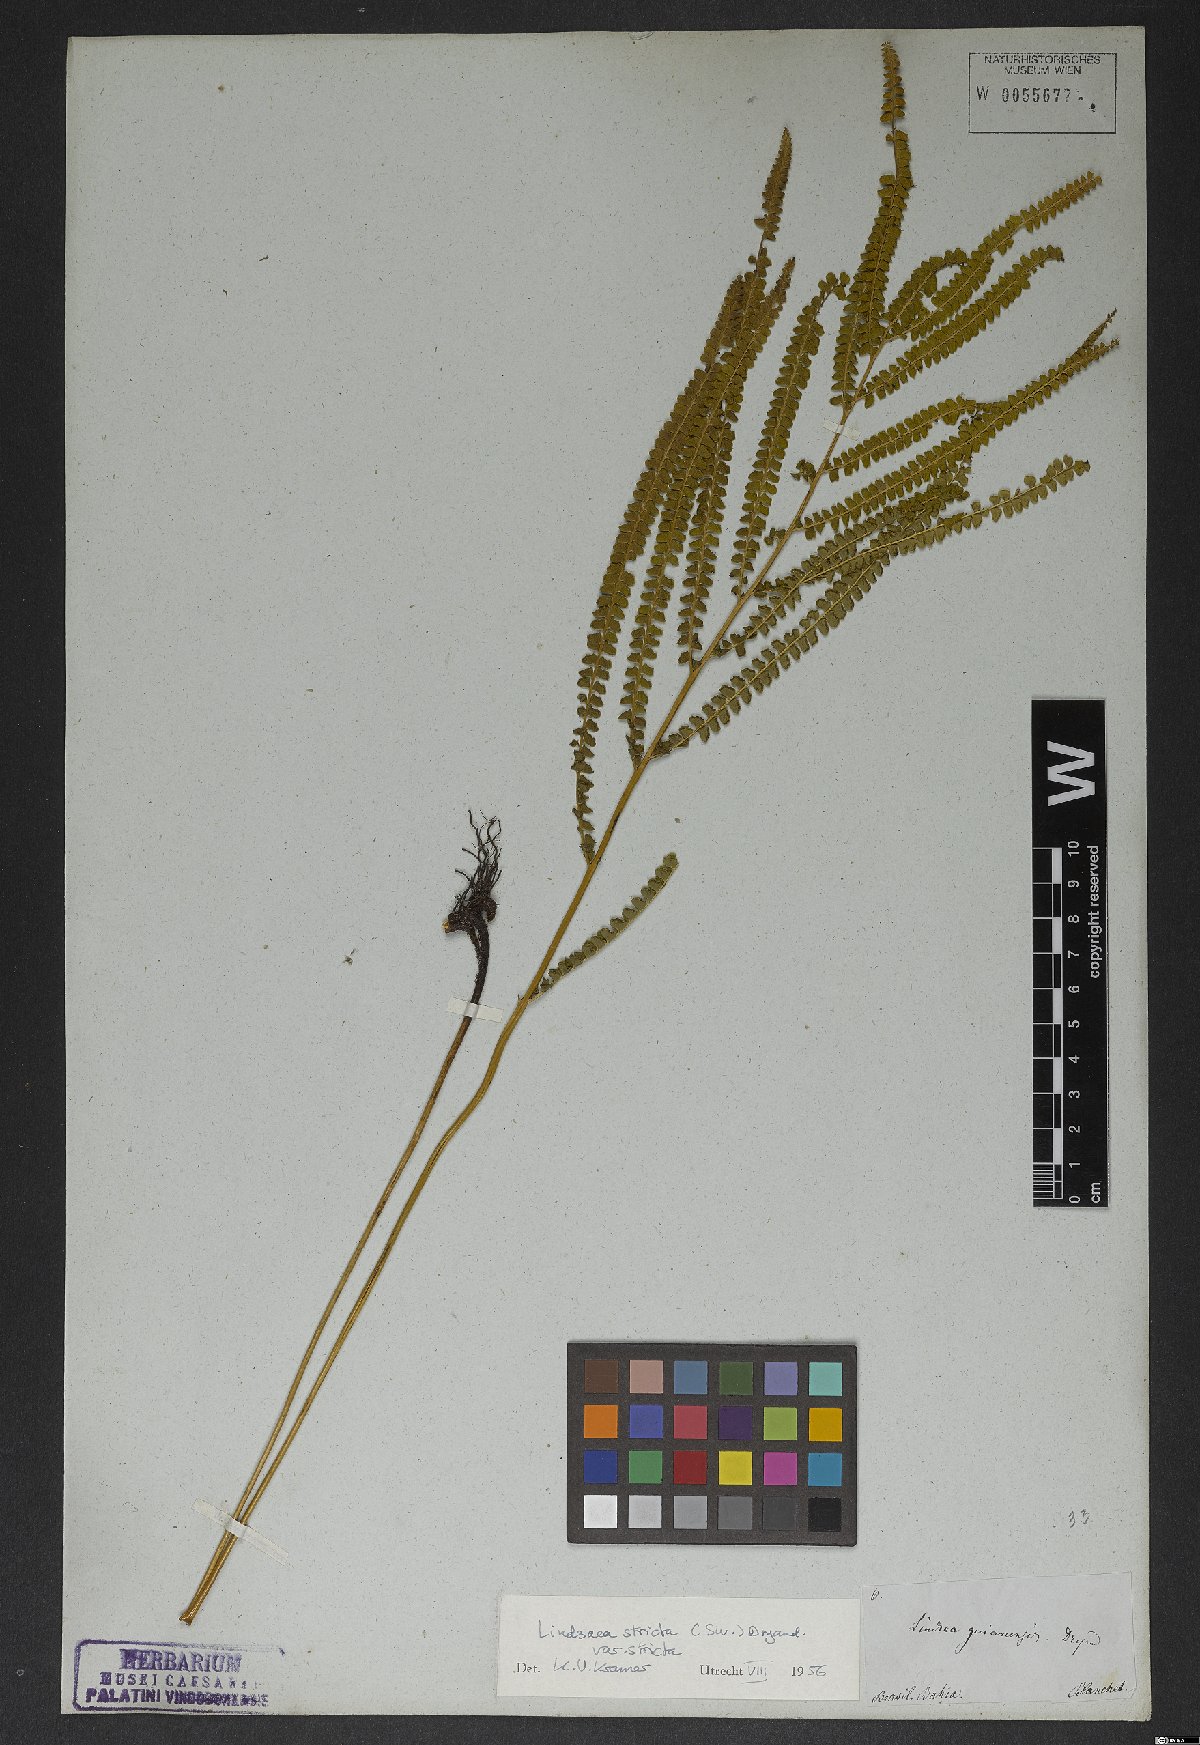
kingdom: Plantae
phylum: Tracheophyta
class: Polypodiopsida
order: Polypodiales
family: Lindsaeaceae
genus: Lindsaea
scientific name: Lindsaea stricta
